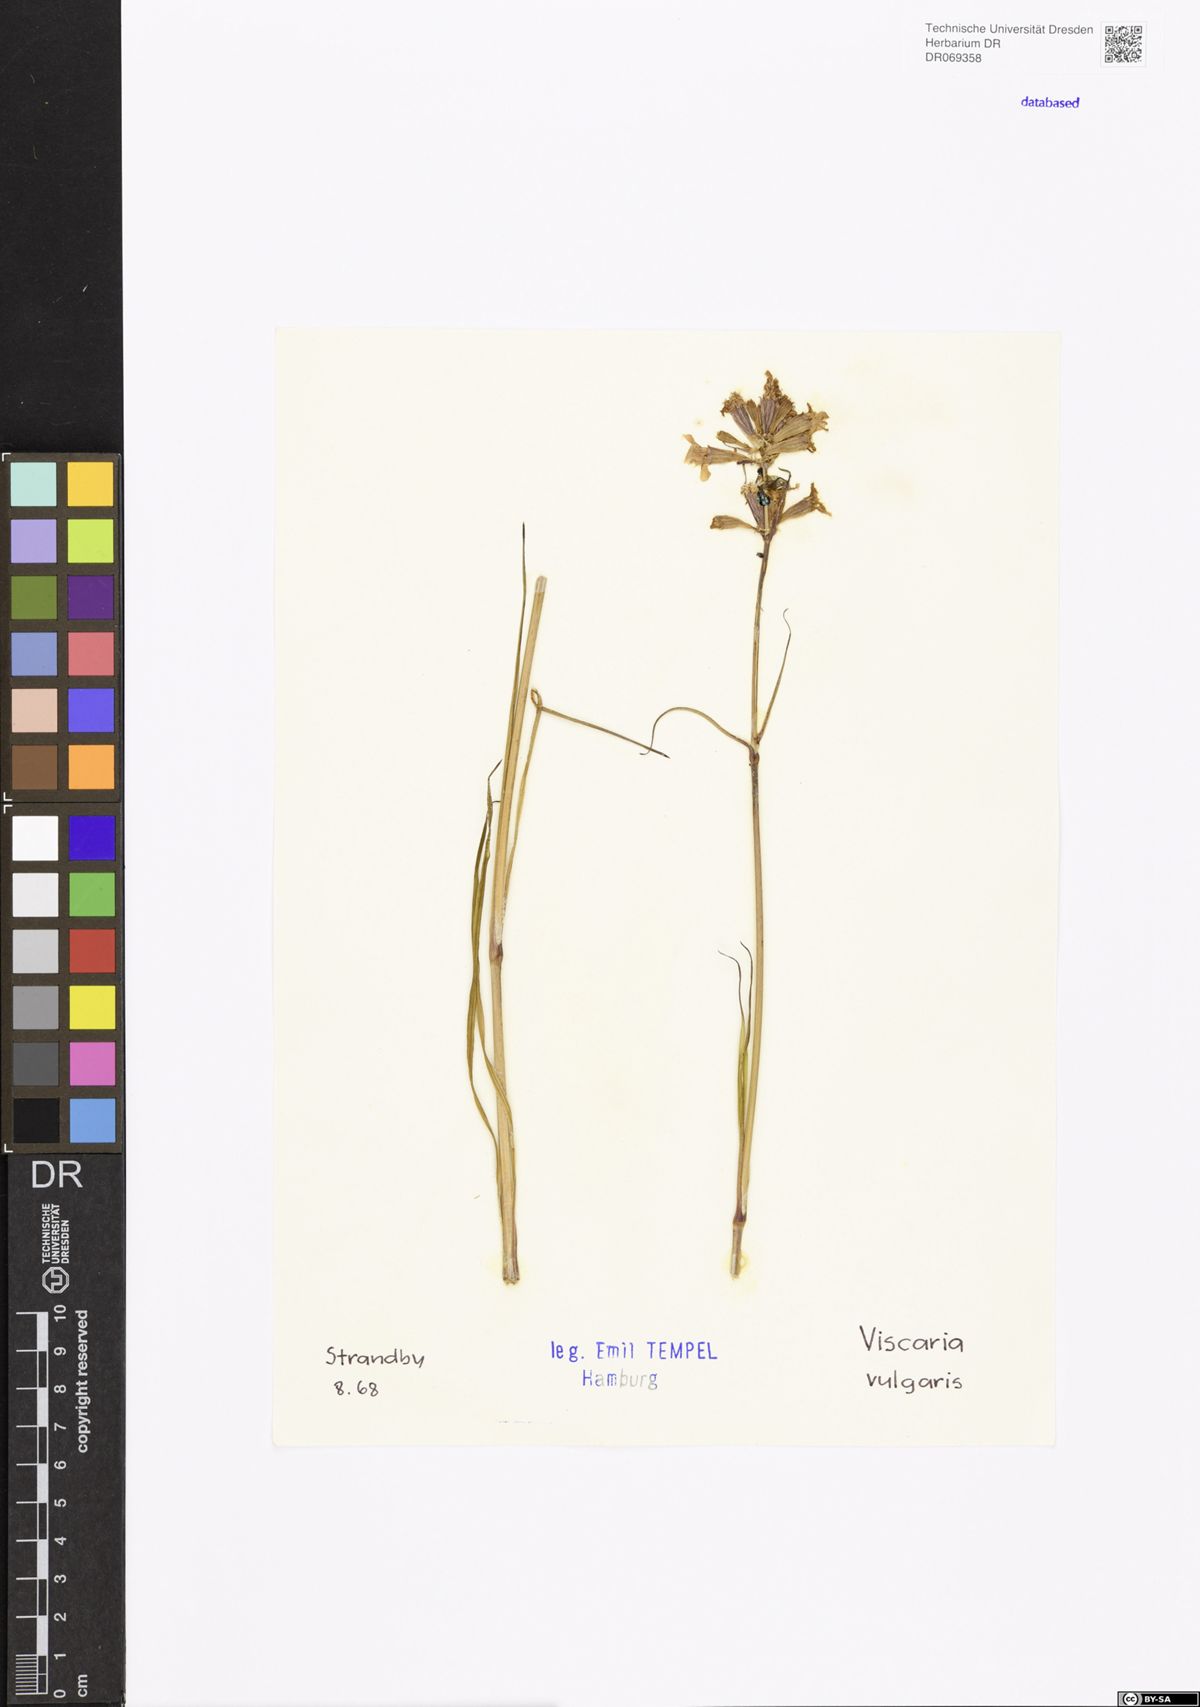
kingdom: Plantae
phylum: Tracheophyta
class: Magnoliopsida
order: Caryophyllales
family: Caryophyllaceae
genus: Viscaria
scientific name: Viscaria vulgaris
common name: Clammy campion
